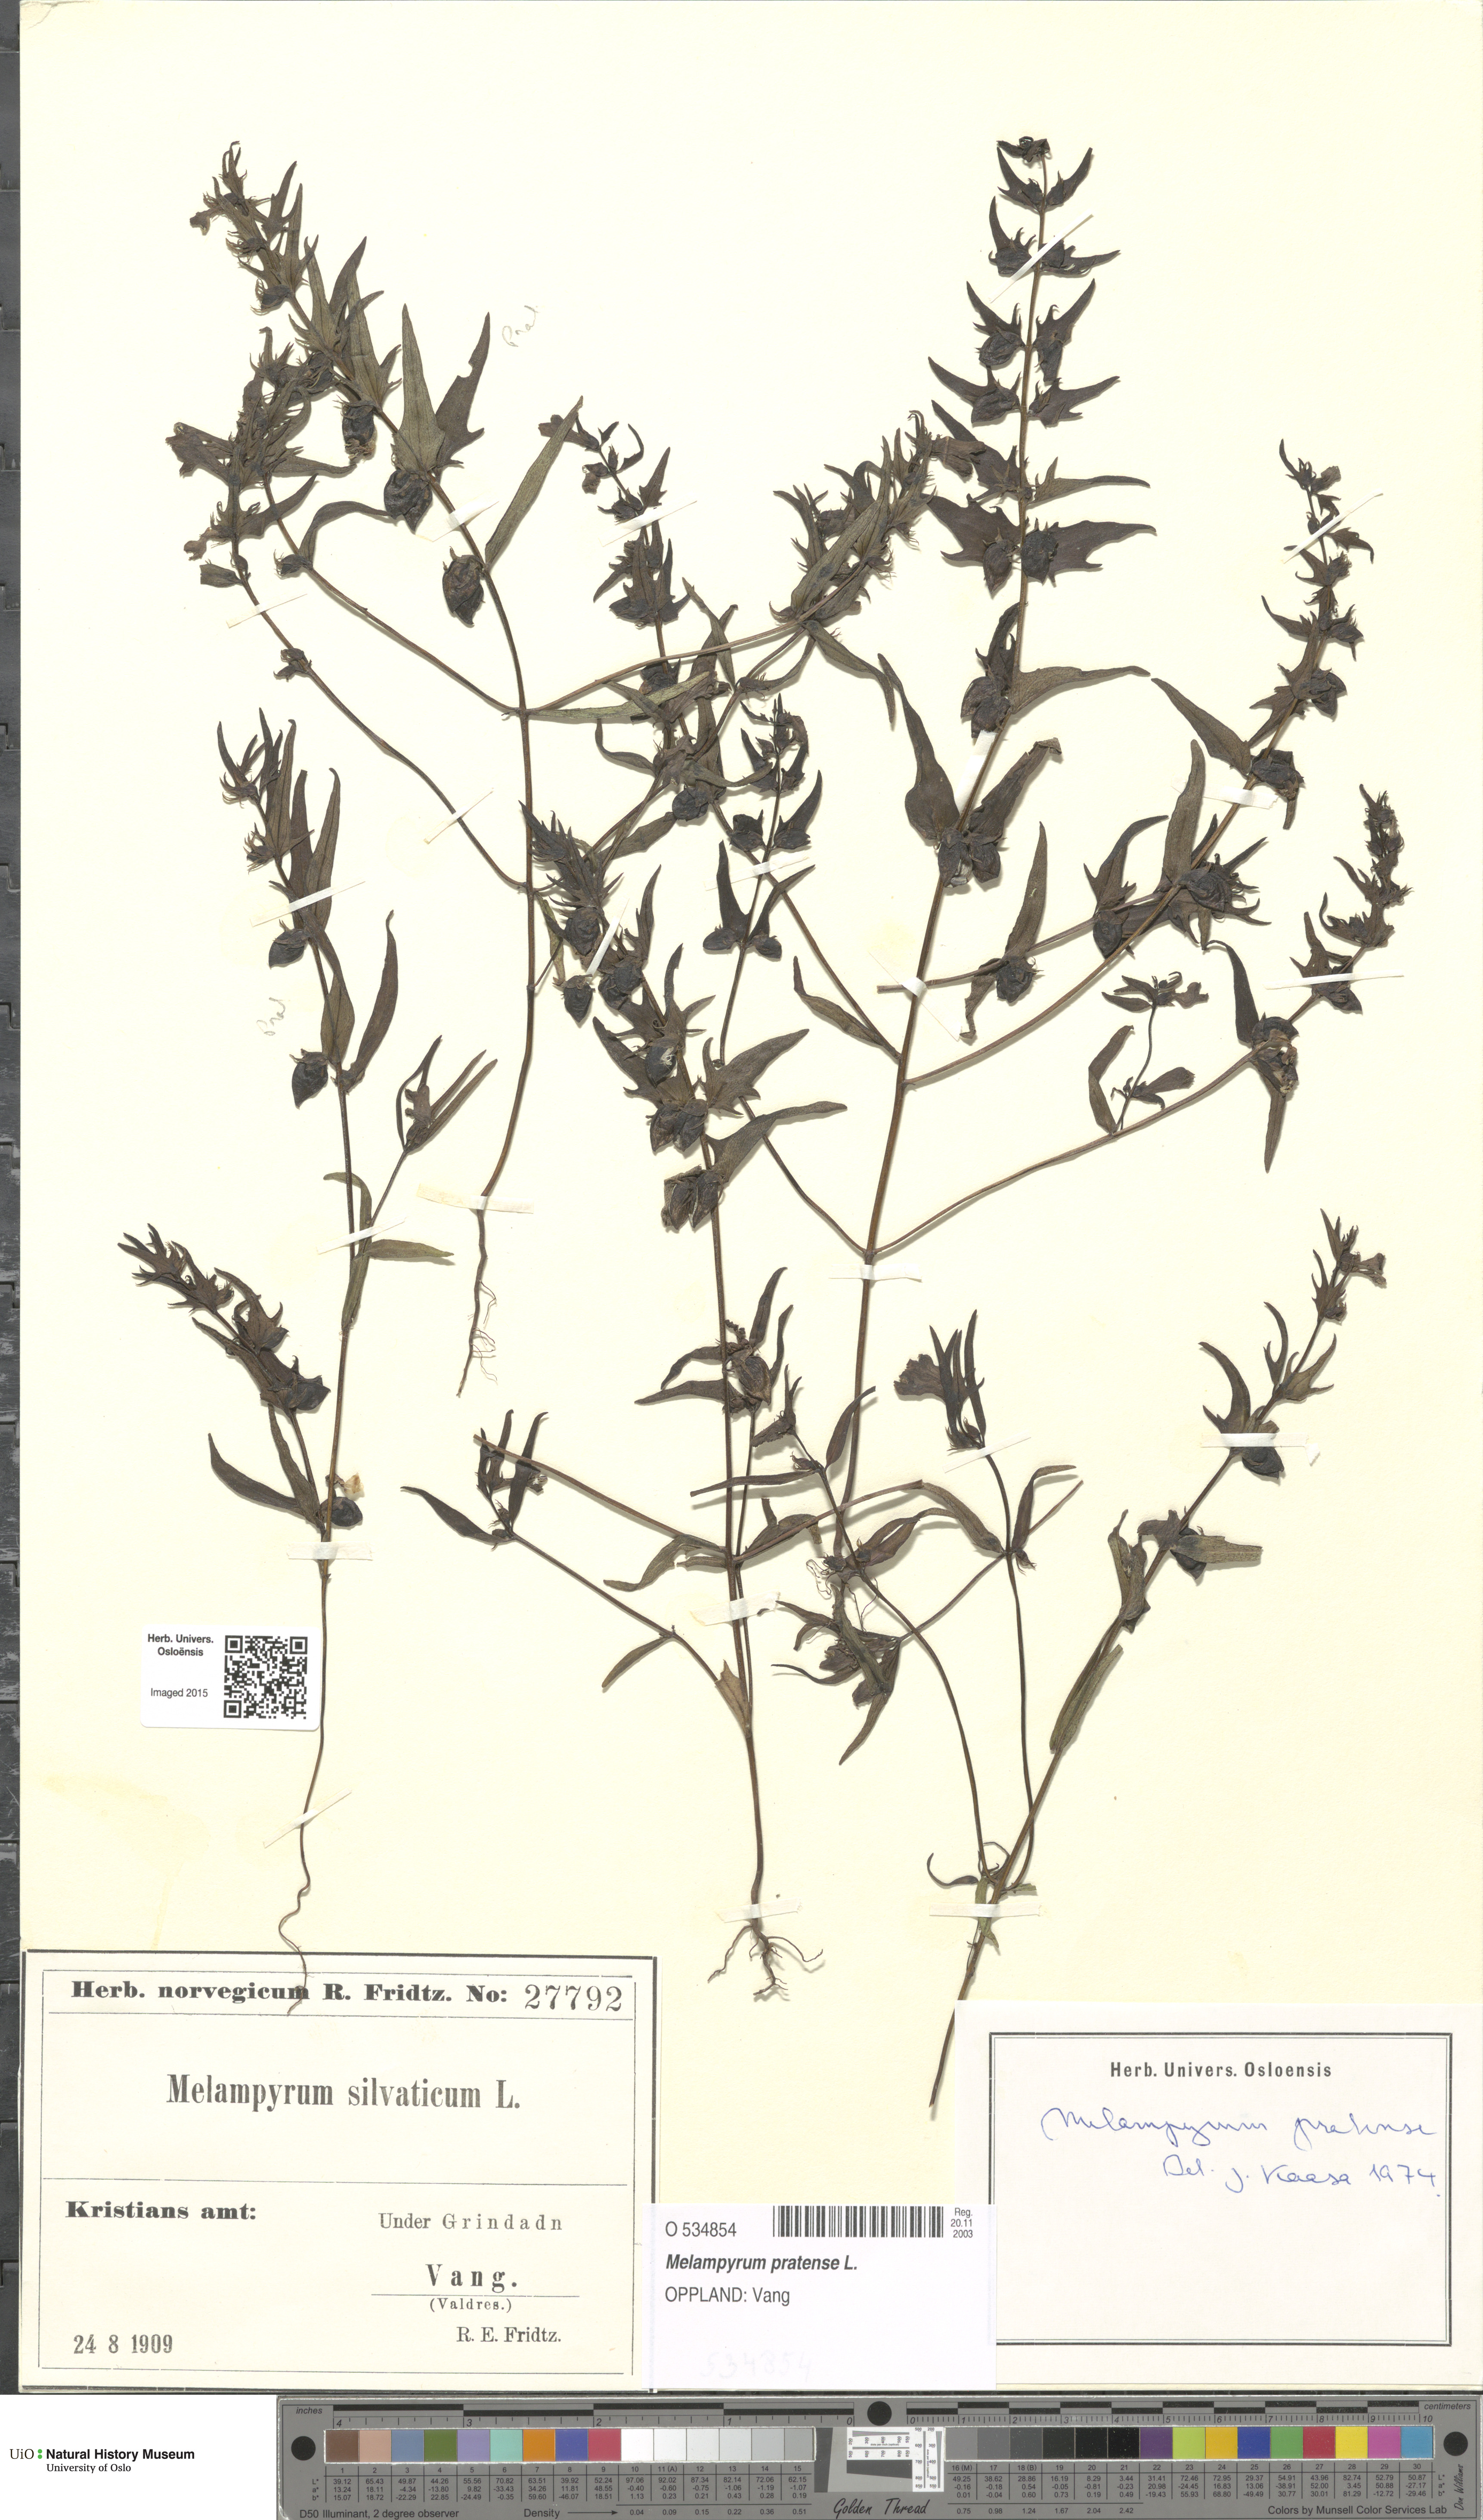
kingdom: Plantae
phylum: Tracheophyta
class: Magnoliopsida
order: Lamiales
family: Orobanchaceae
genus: Melampyrum
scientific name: Melampyrum pratense
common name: Common cow-wheat
